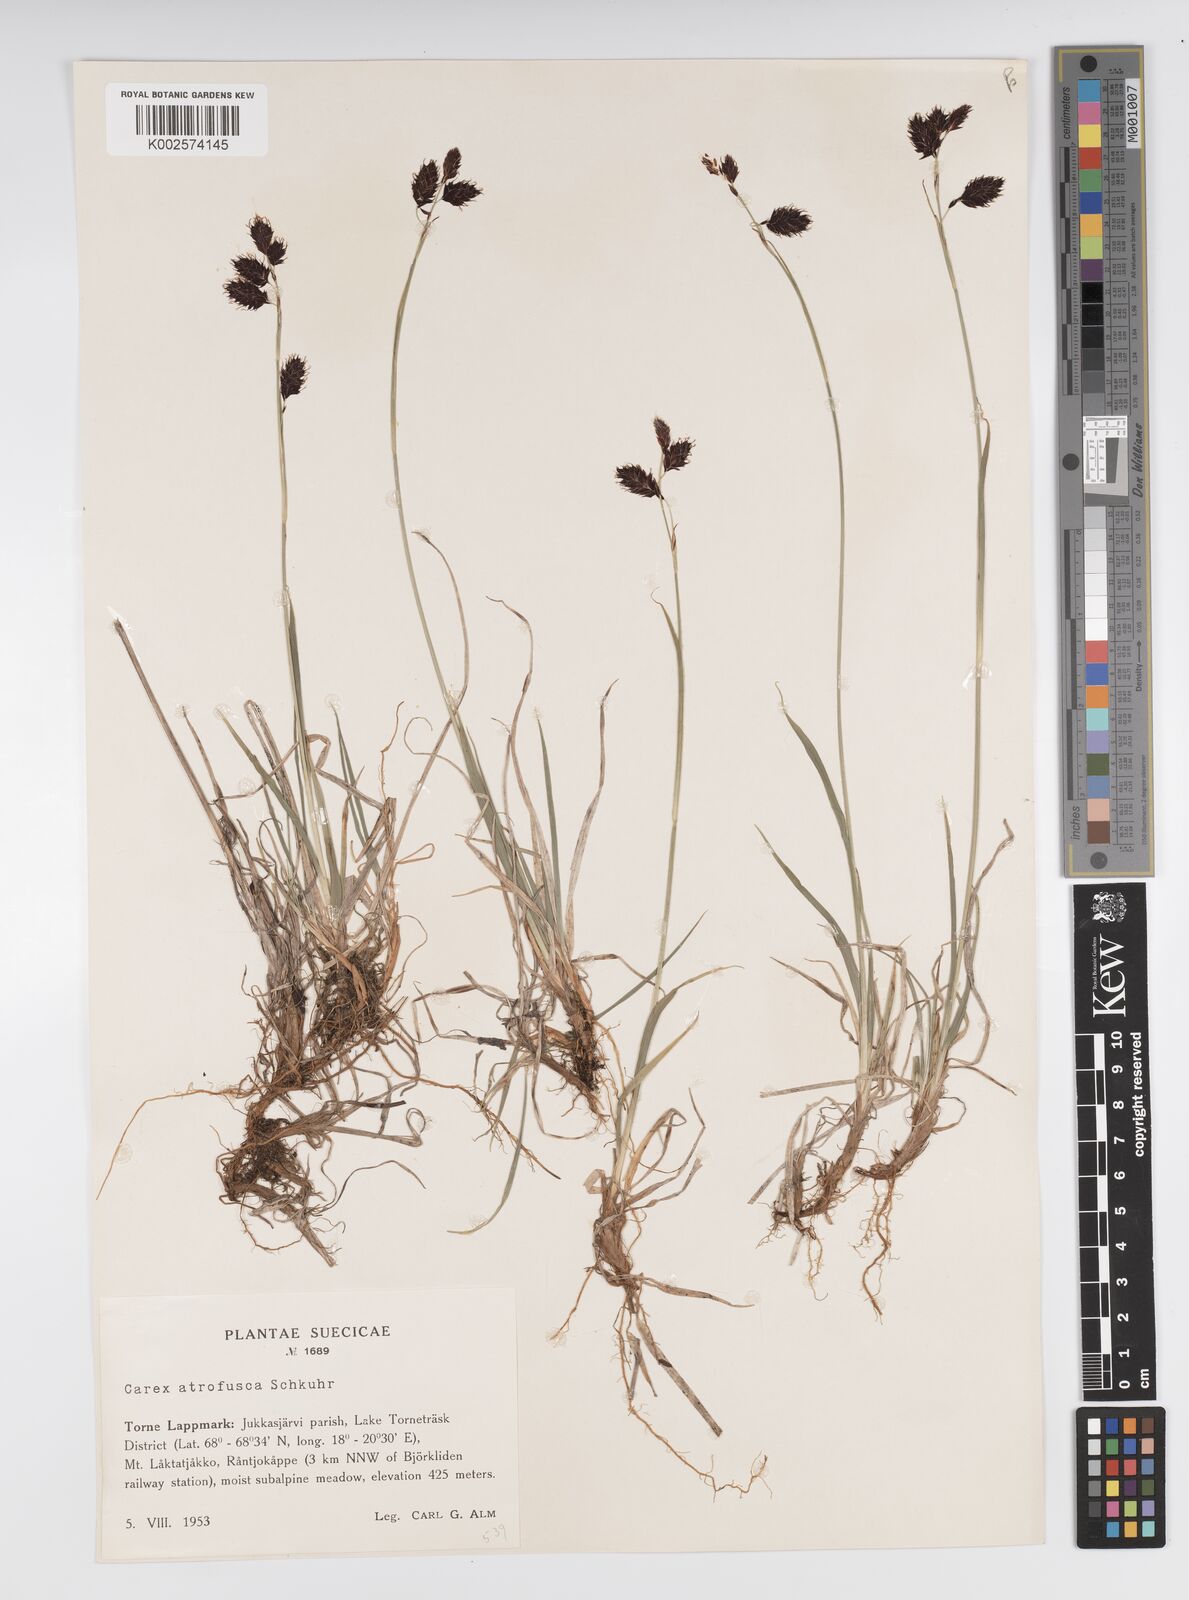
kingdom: Plantae
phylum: Tracheophyta
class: Liliopsida
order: Poales
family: Cyperaceae
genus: Carex
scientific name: Carex atrofusca
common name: Scorched alpine-sedge
